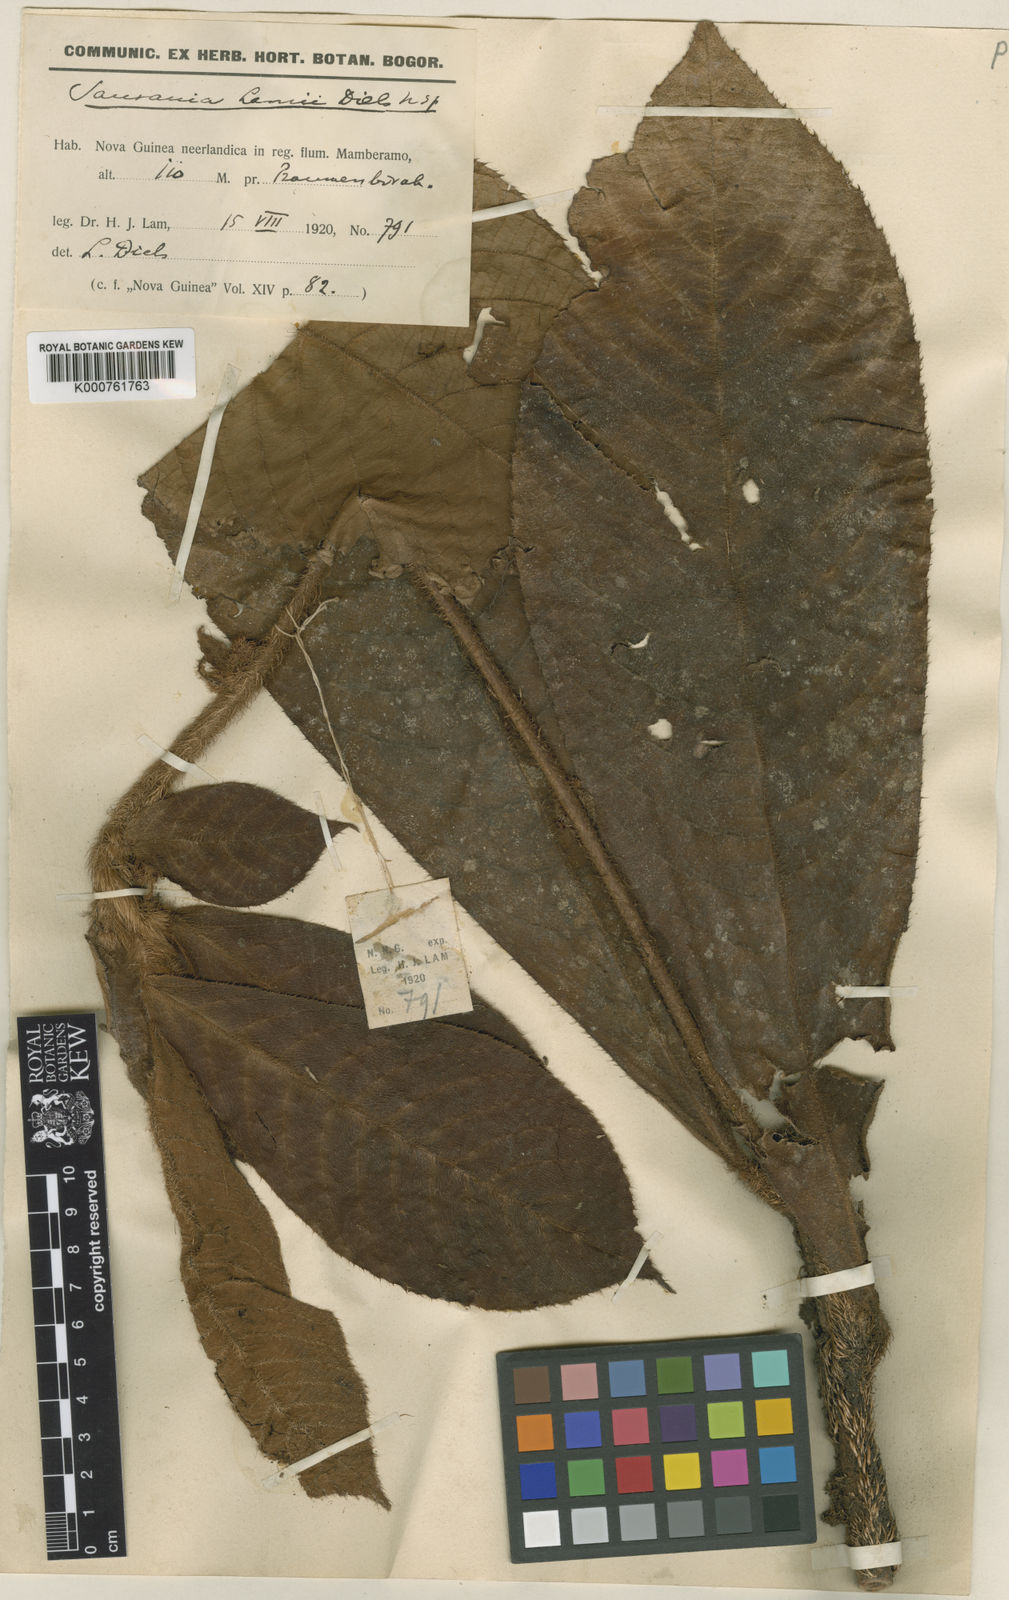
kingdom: Plantae
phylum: Tracheophyta
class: Magnoliopsida
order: Ericales
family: Actinidiaceae
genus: Saurauia
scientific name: Saurauia
